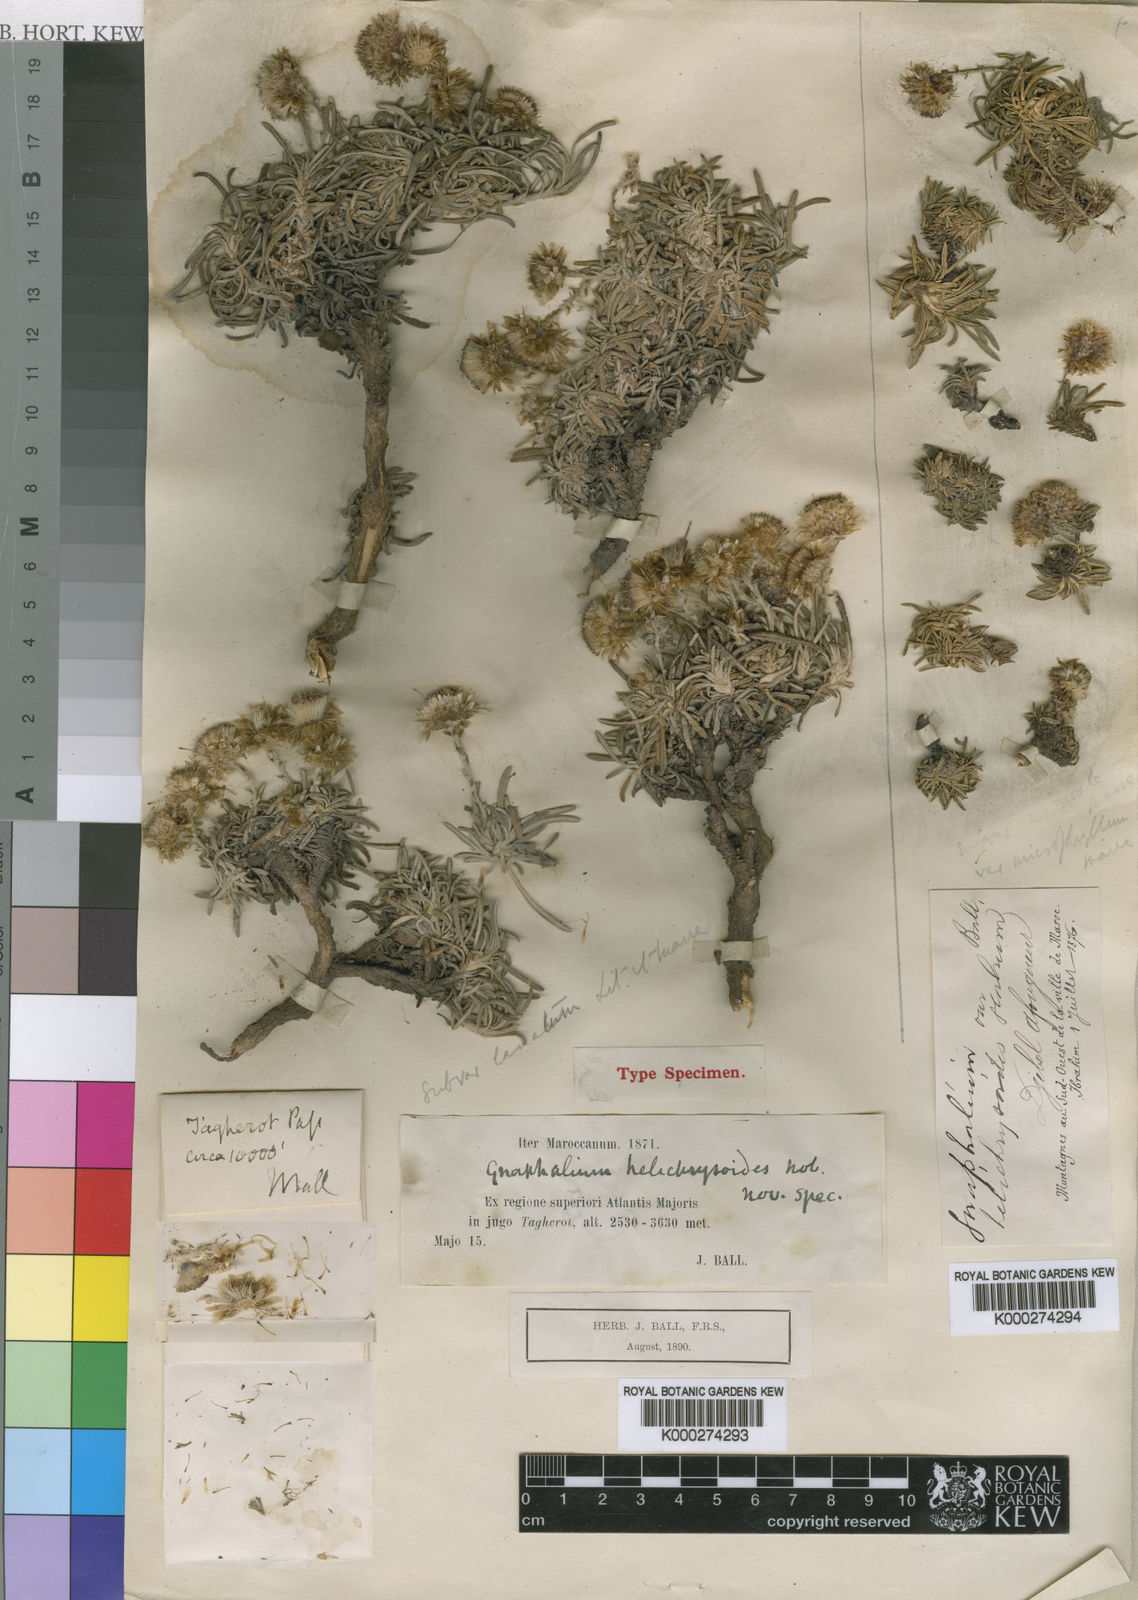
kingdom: Plantae
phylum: Tracheophyta
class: Magnoliopsida
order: Asterales
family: Asteraceae
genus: Aliella
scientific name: Aliella
